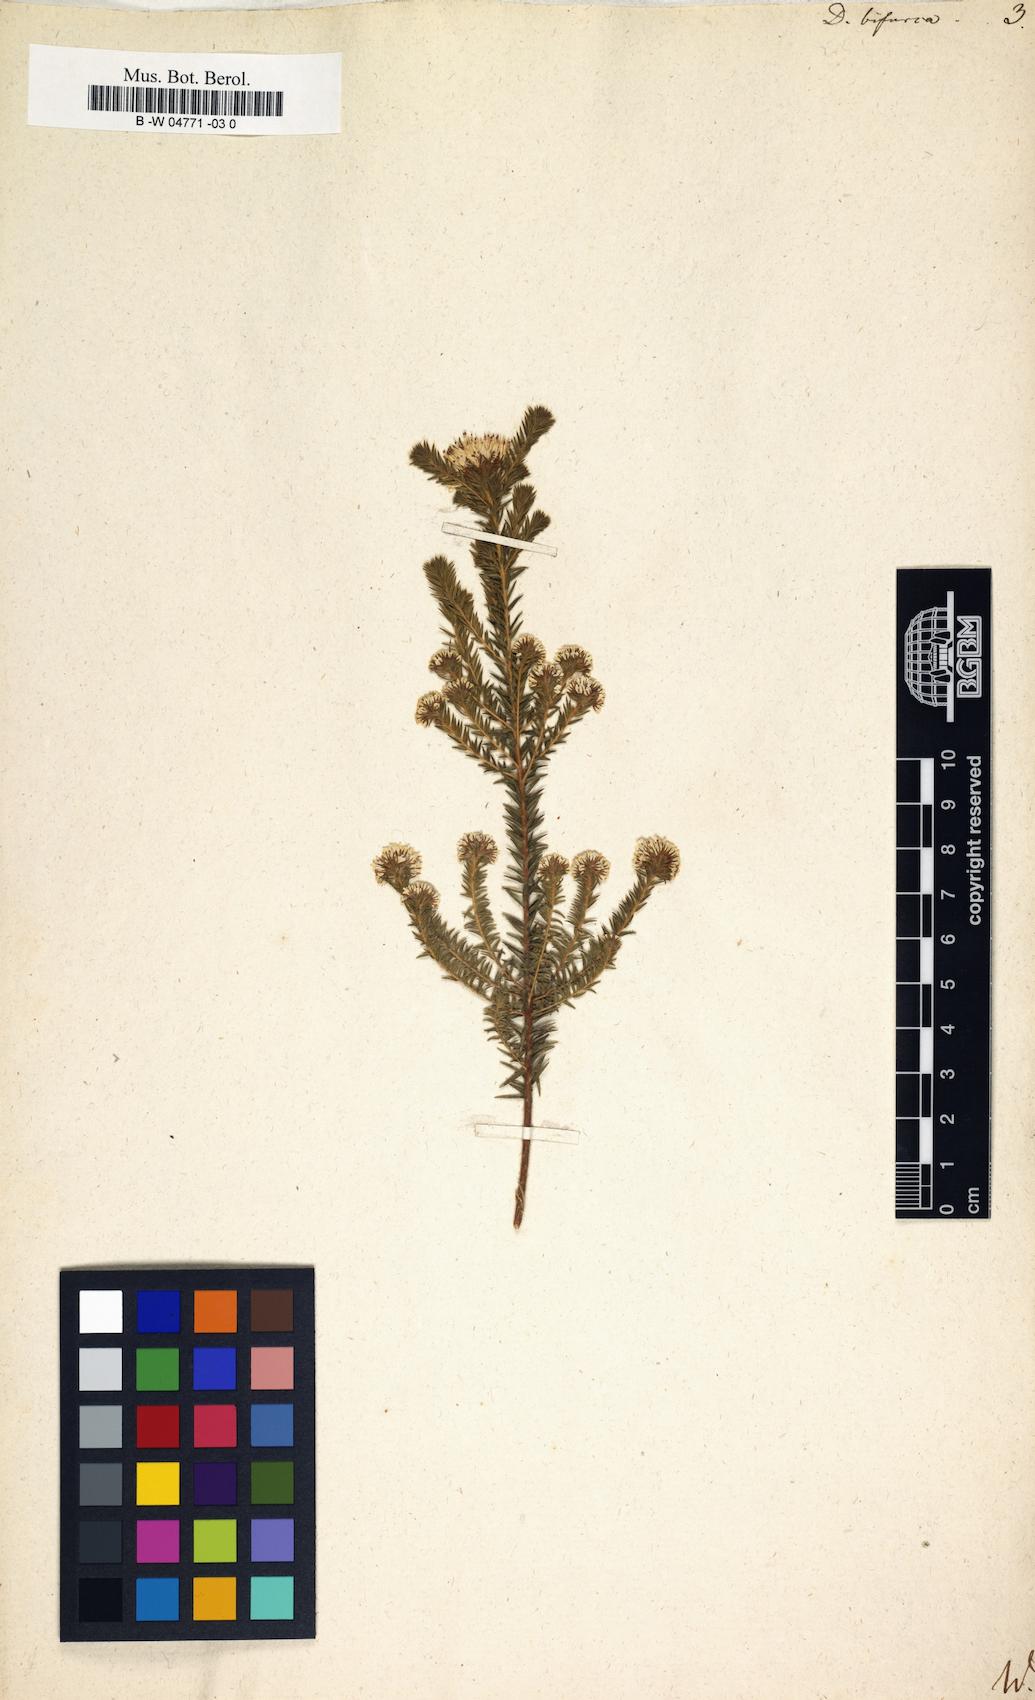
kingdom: Plantae
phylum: Tracheophyta
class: Magnoliopsida
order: Sapindales
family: Rutaceae
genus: Agathosma
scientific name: Agathosma bisulca
